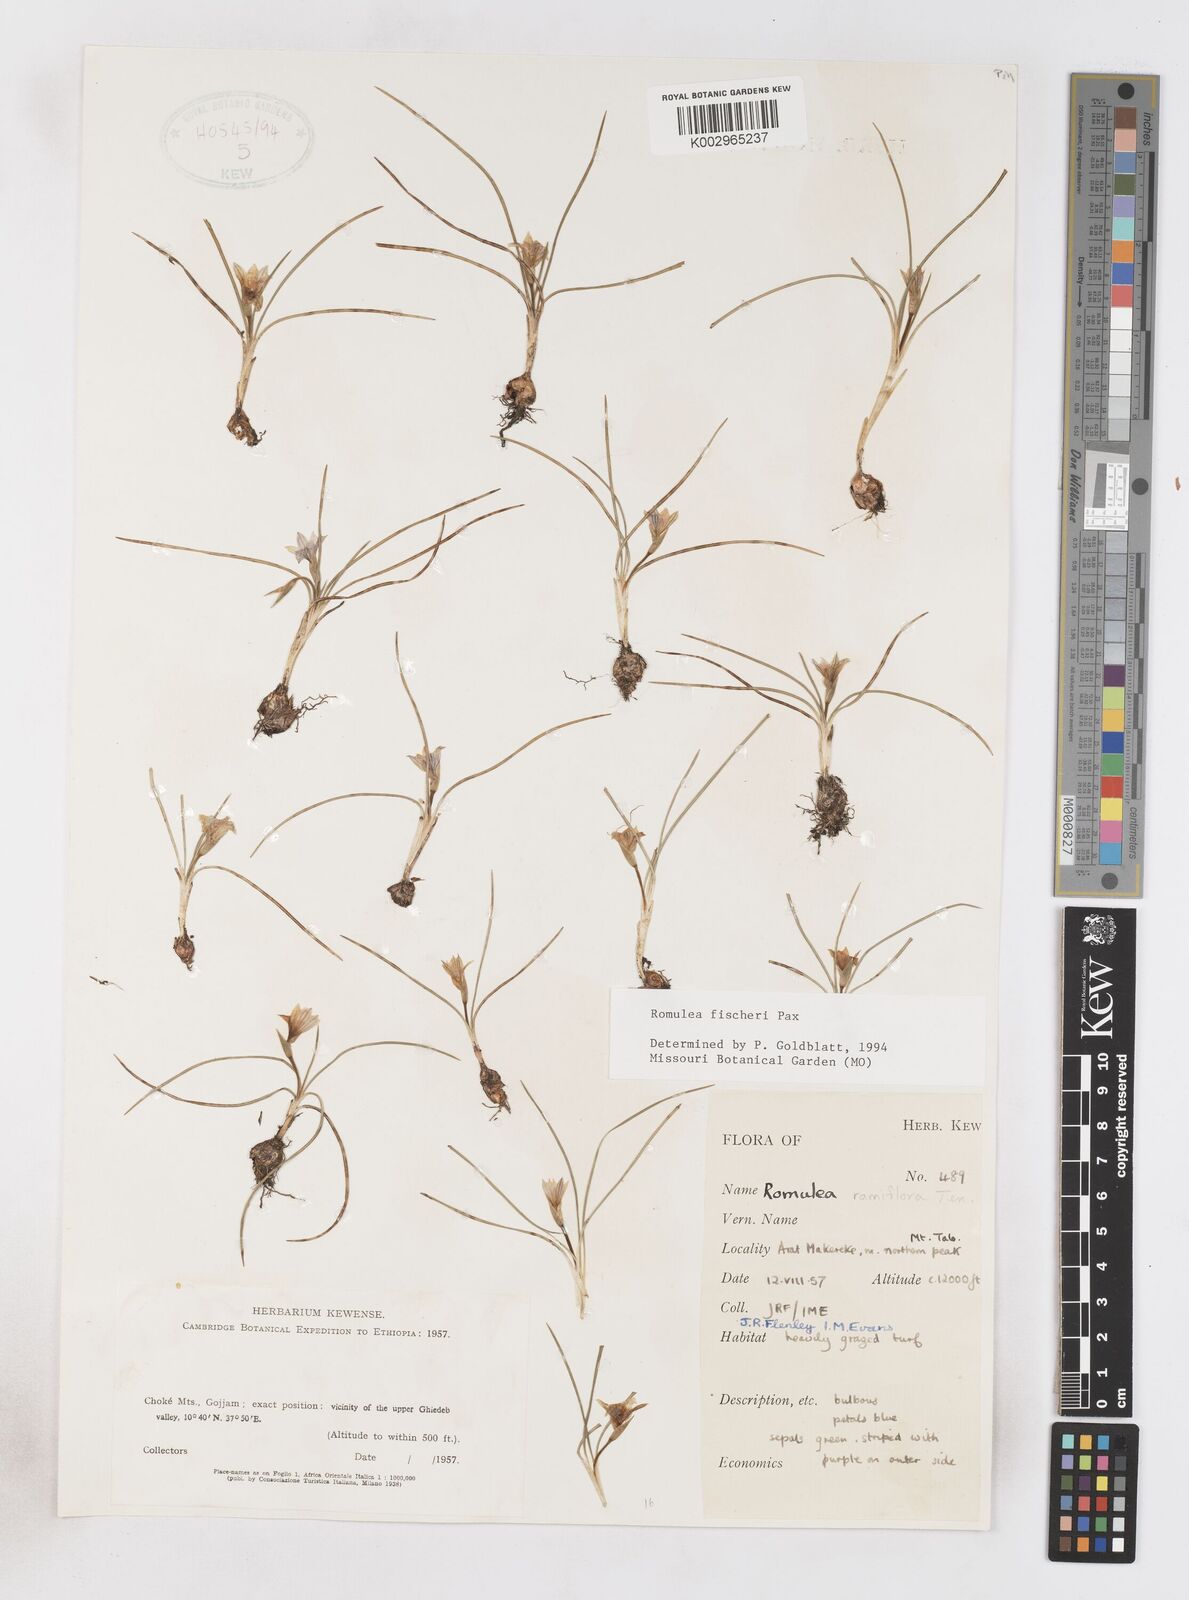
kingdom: Plantae
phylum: Tracheophyta
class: Liliopsida
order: Asparagales
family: Iridaceae
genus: Romulea
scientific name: Romulea fischeri
